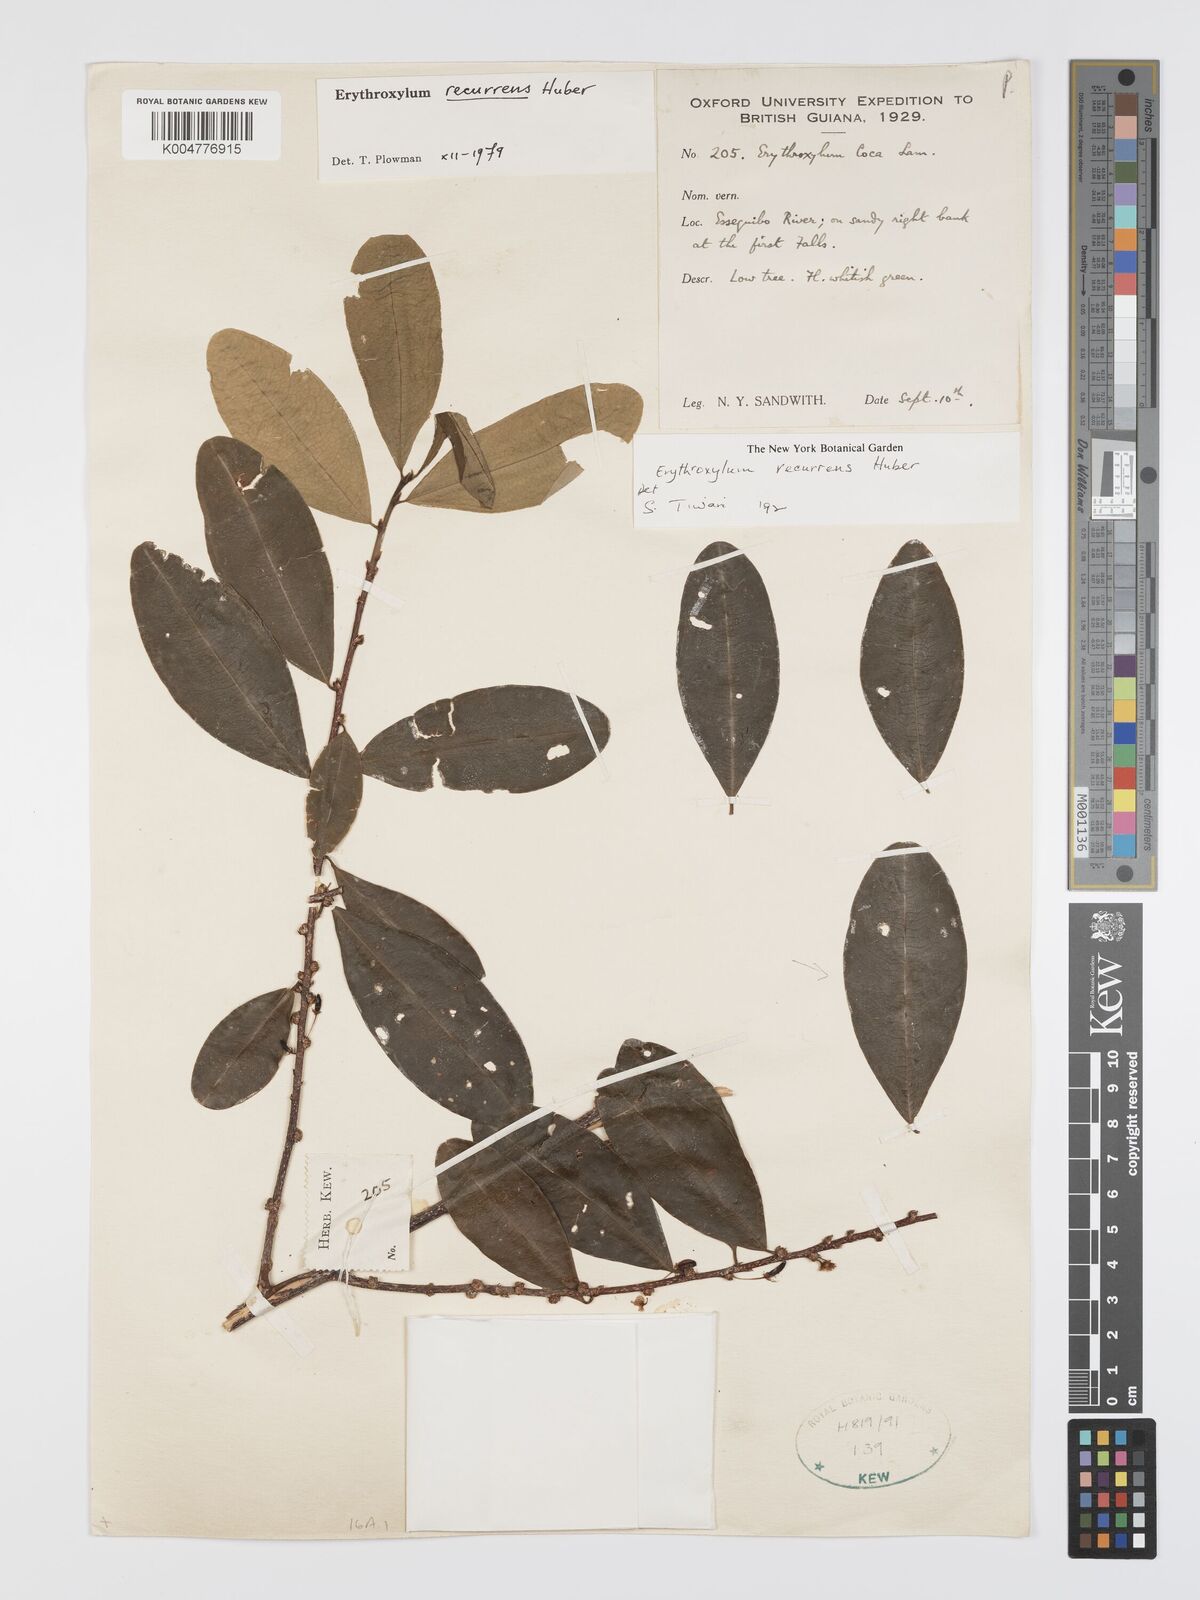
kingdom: Plantae
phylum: Tracheophyta
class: Magnoliopsida
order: Malpighiales
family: Erythroxylaceae
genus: Erythroxylum
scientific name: Erythroxylum gracilipes
